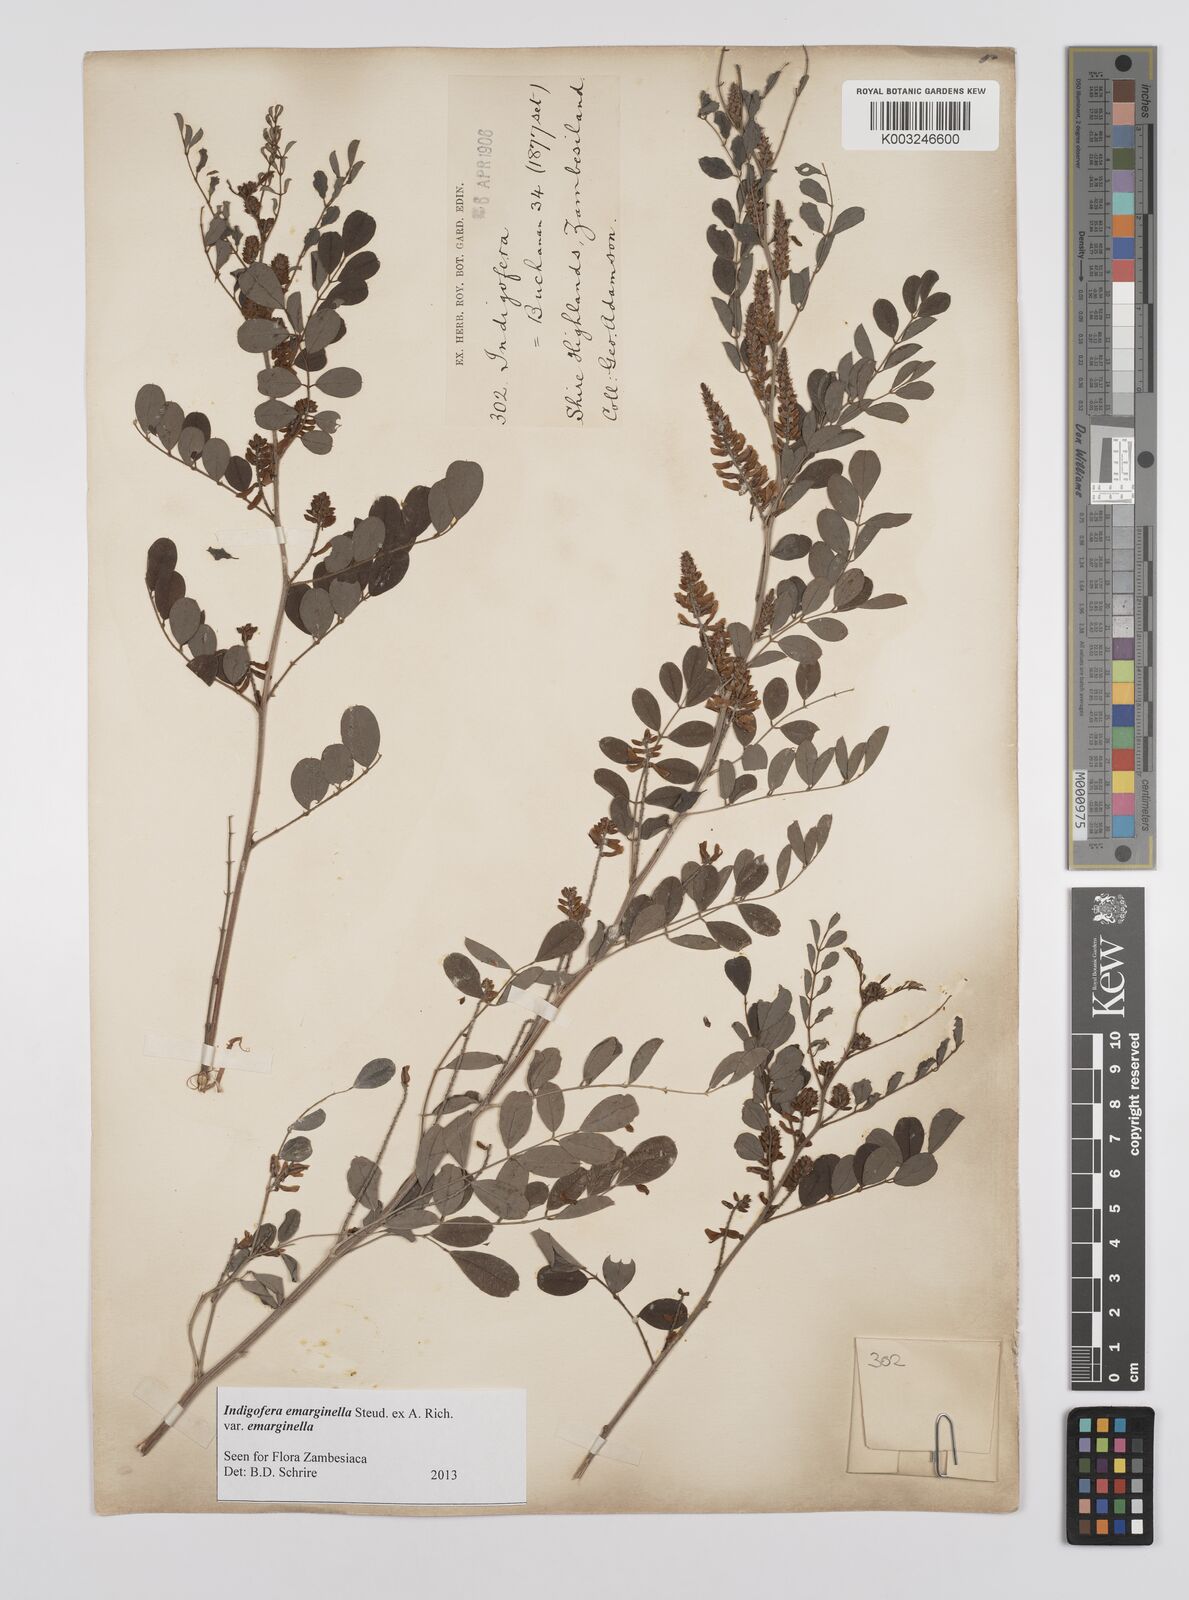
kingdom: Plantae
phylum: Tracheophyta
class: Magnoliopsida
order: Fabales
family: Fabaceae
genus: Indigofera
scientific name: Indigofera emarginella
